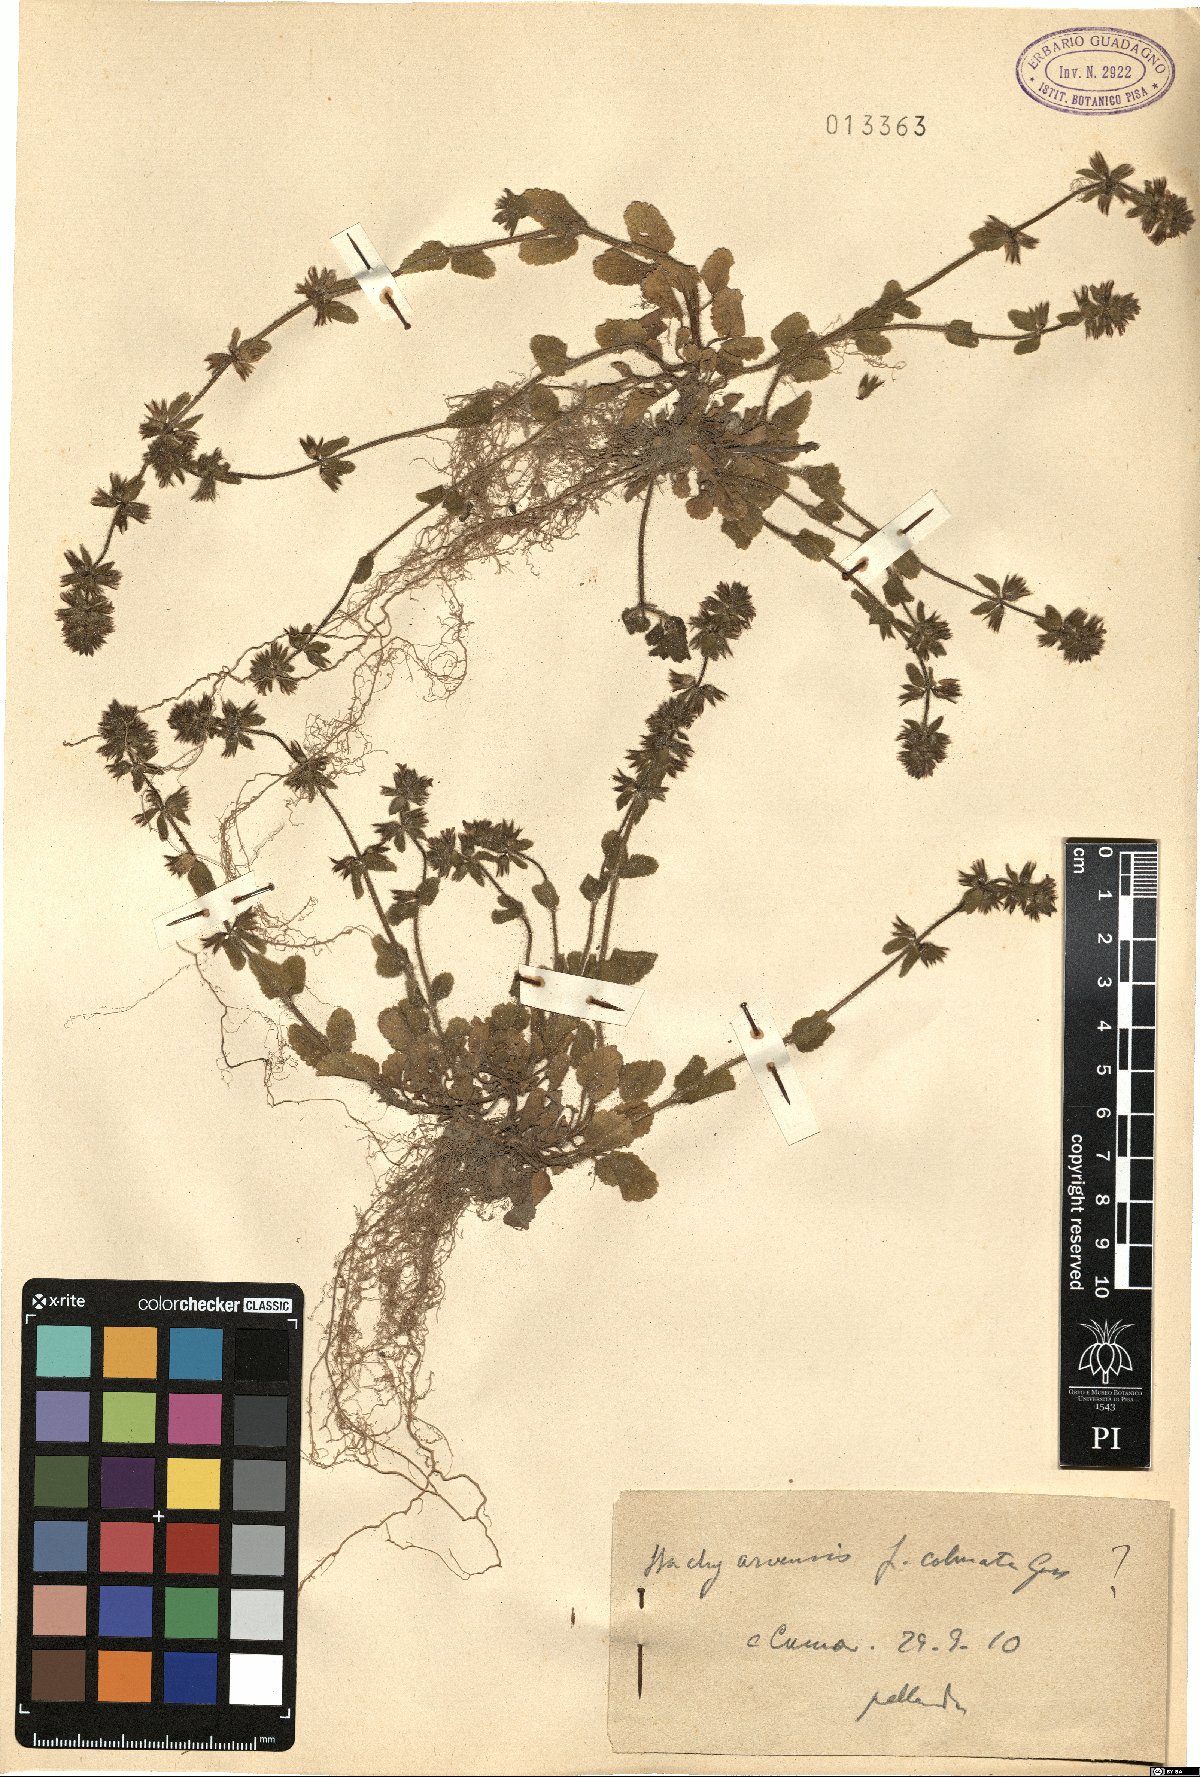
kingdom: Plantae
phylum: Tracheophyta
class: Magnoliopsida
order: Lamiales
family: Lamiaceae
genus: Stachys
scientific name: Stachys arvensis
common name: Field woundwort
